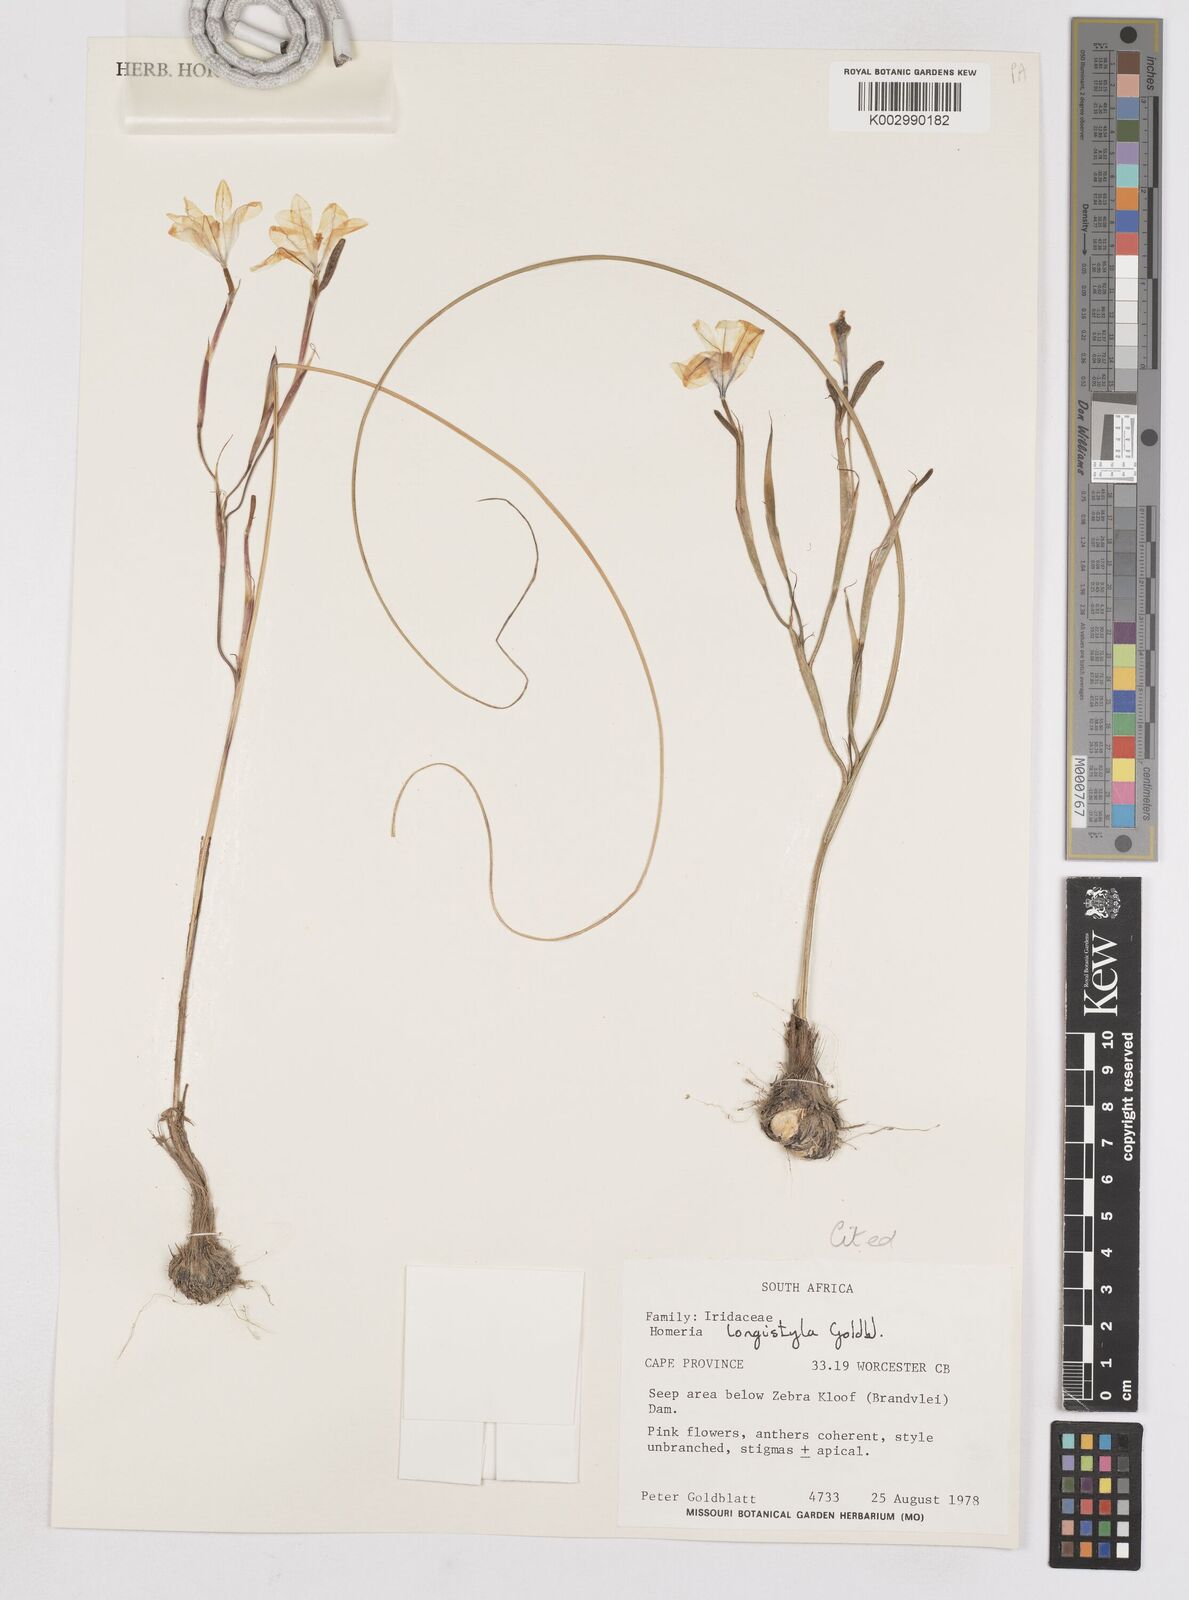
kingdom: Plantae
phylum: Tracheophyta
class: Liliopsida
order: Asparagales
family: Iridaceae
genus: Moraea
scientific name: Moraea longistyla
